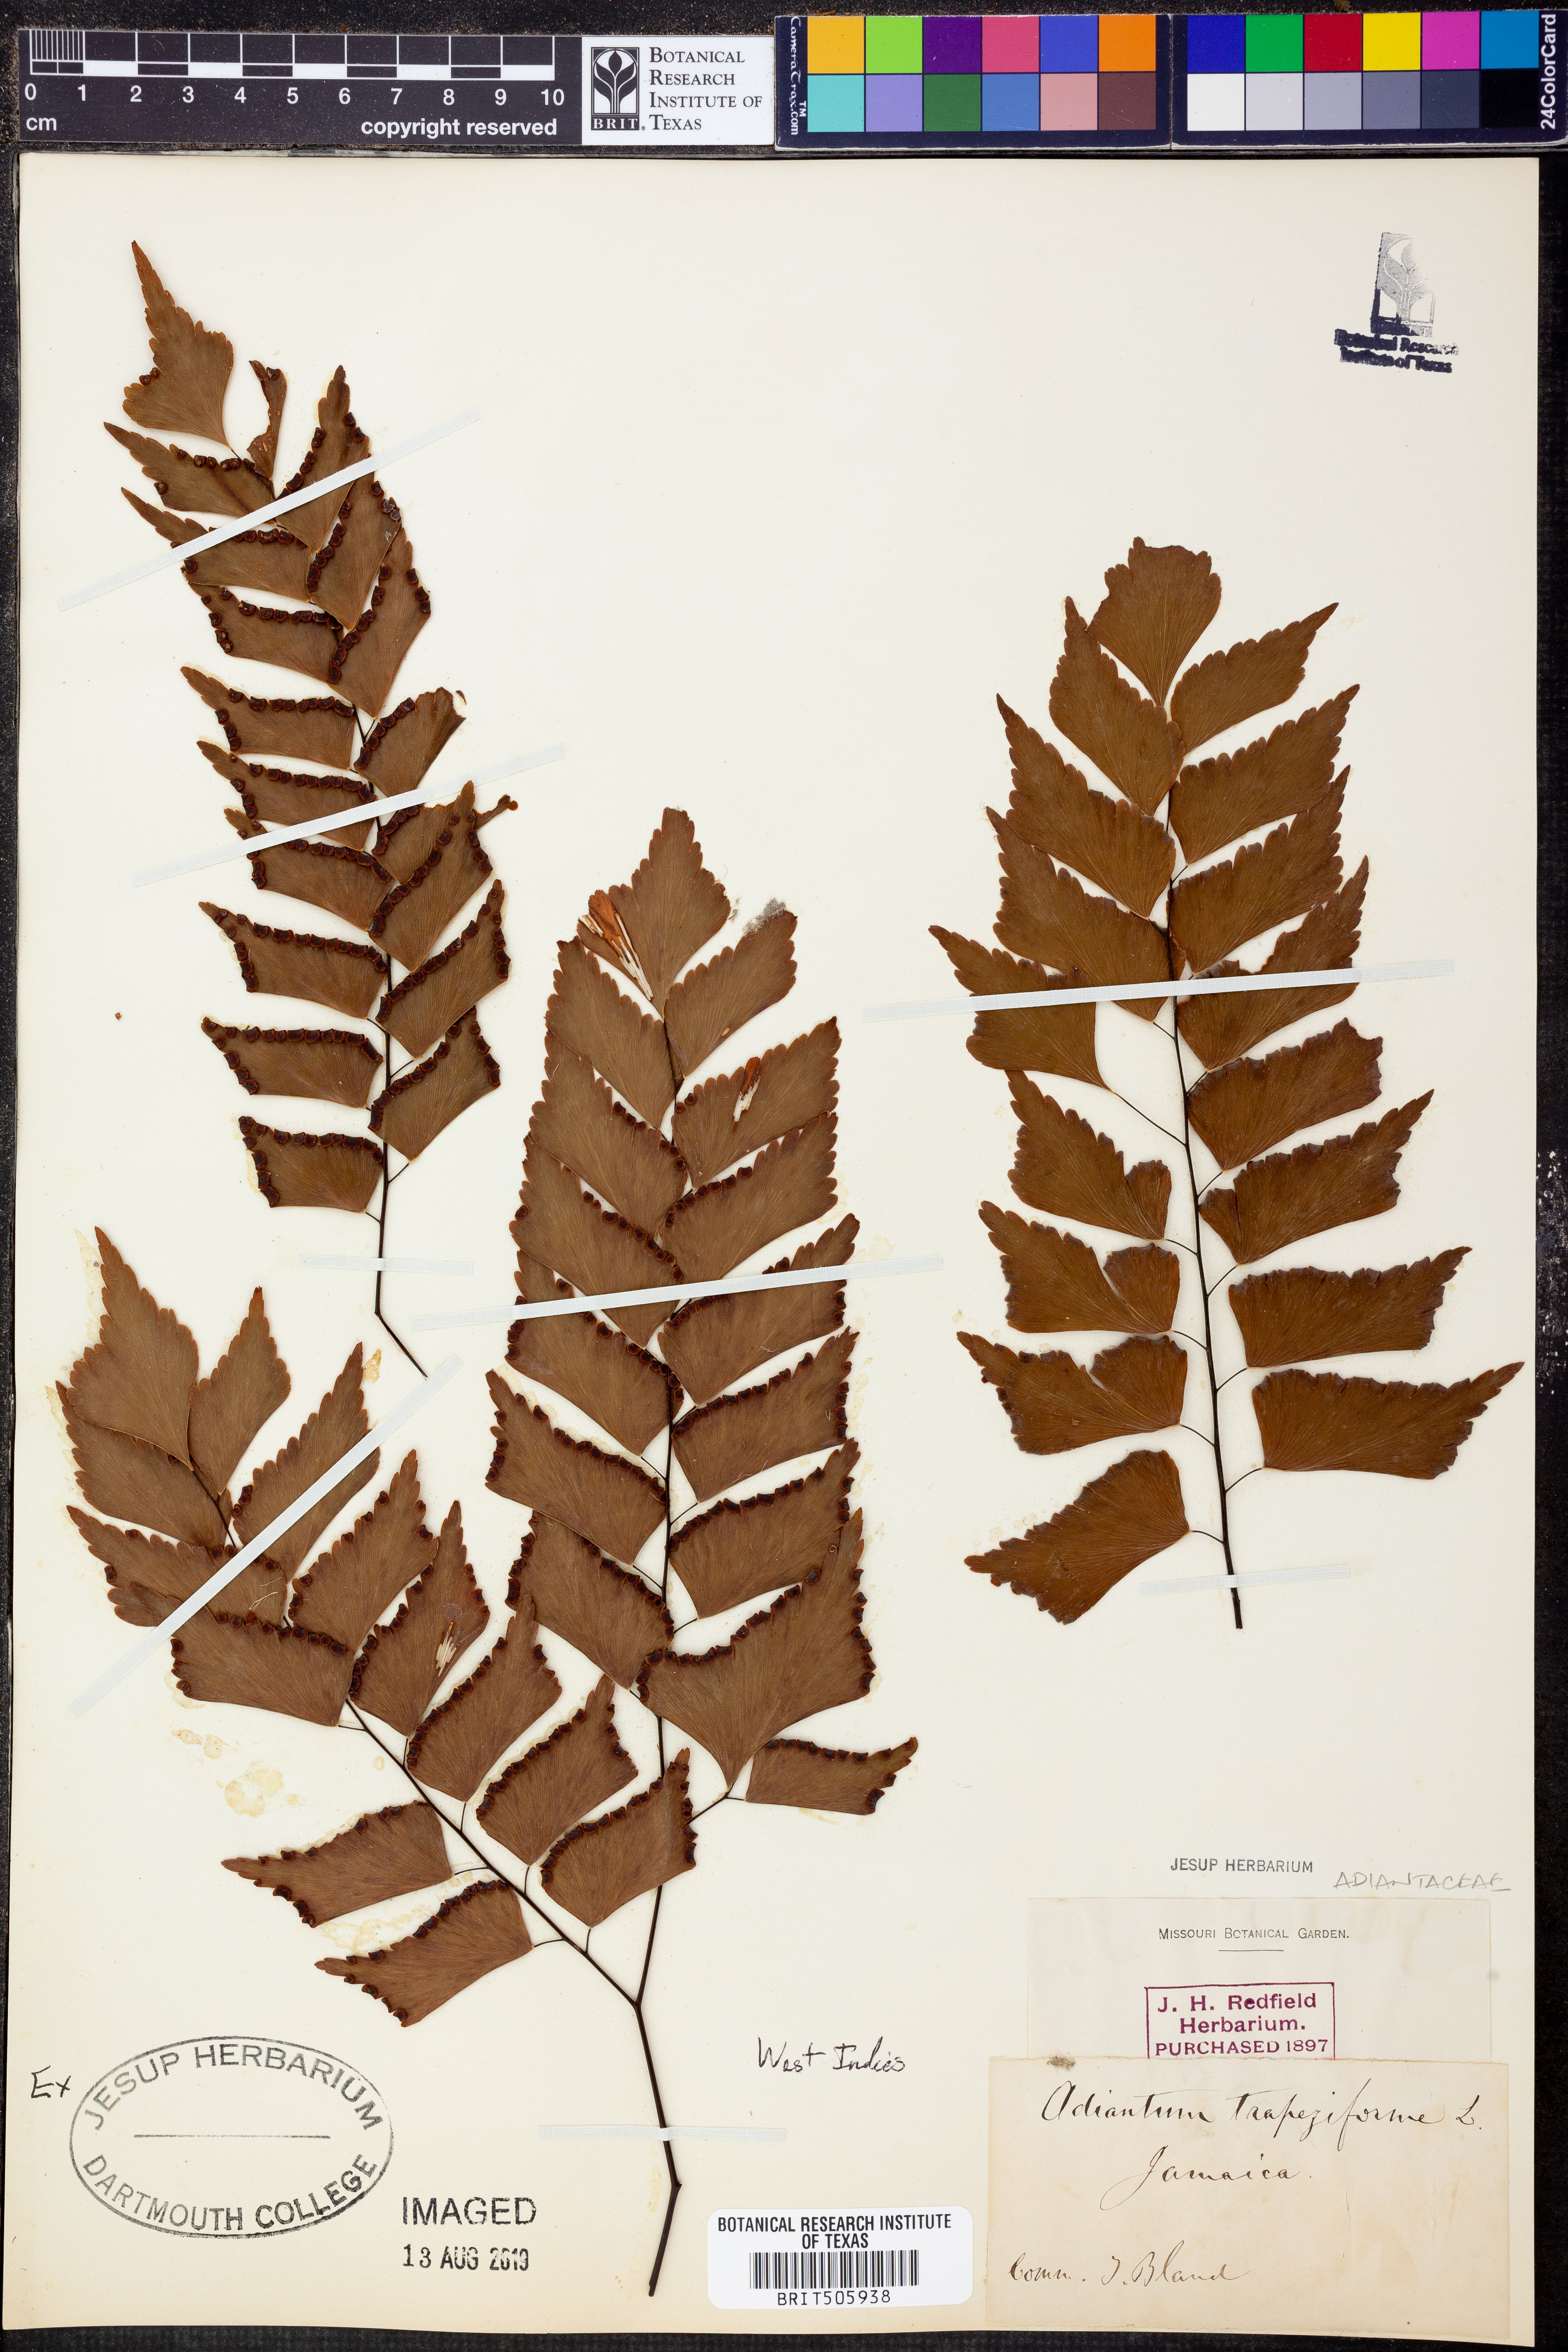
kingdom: Plantae
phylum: Tracheophyta
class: Polypodiopsida
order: Polypodiales
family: Pteridaceae
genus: Adiantum
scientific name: Adiantum trapeziforme
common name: Diamond maidenhair
